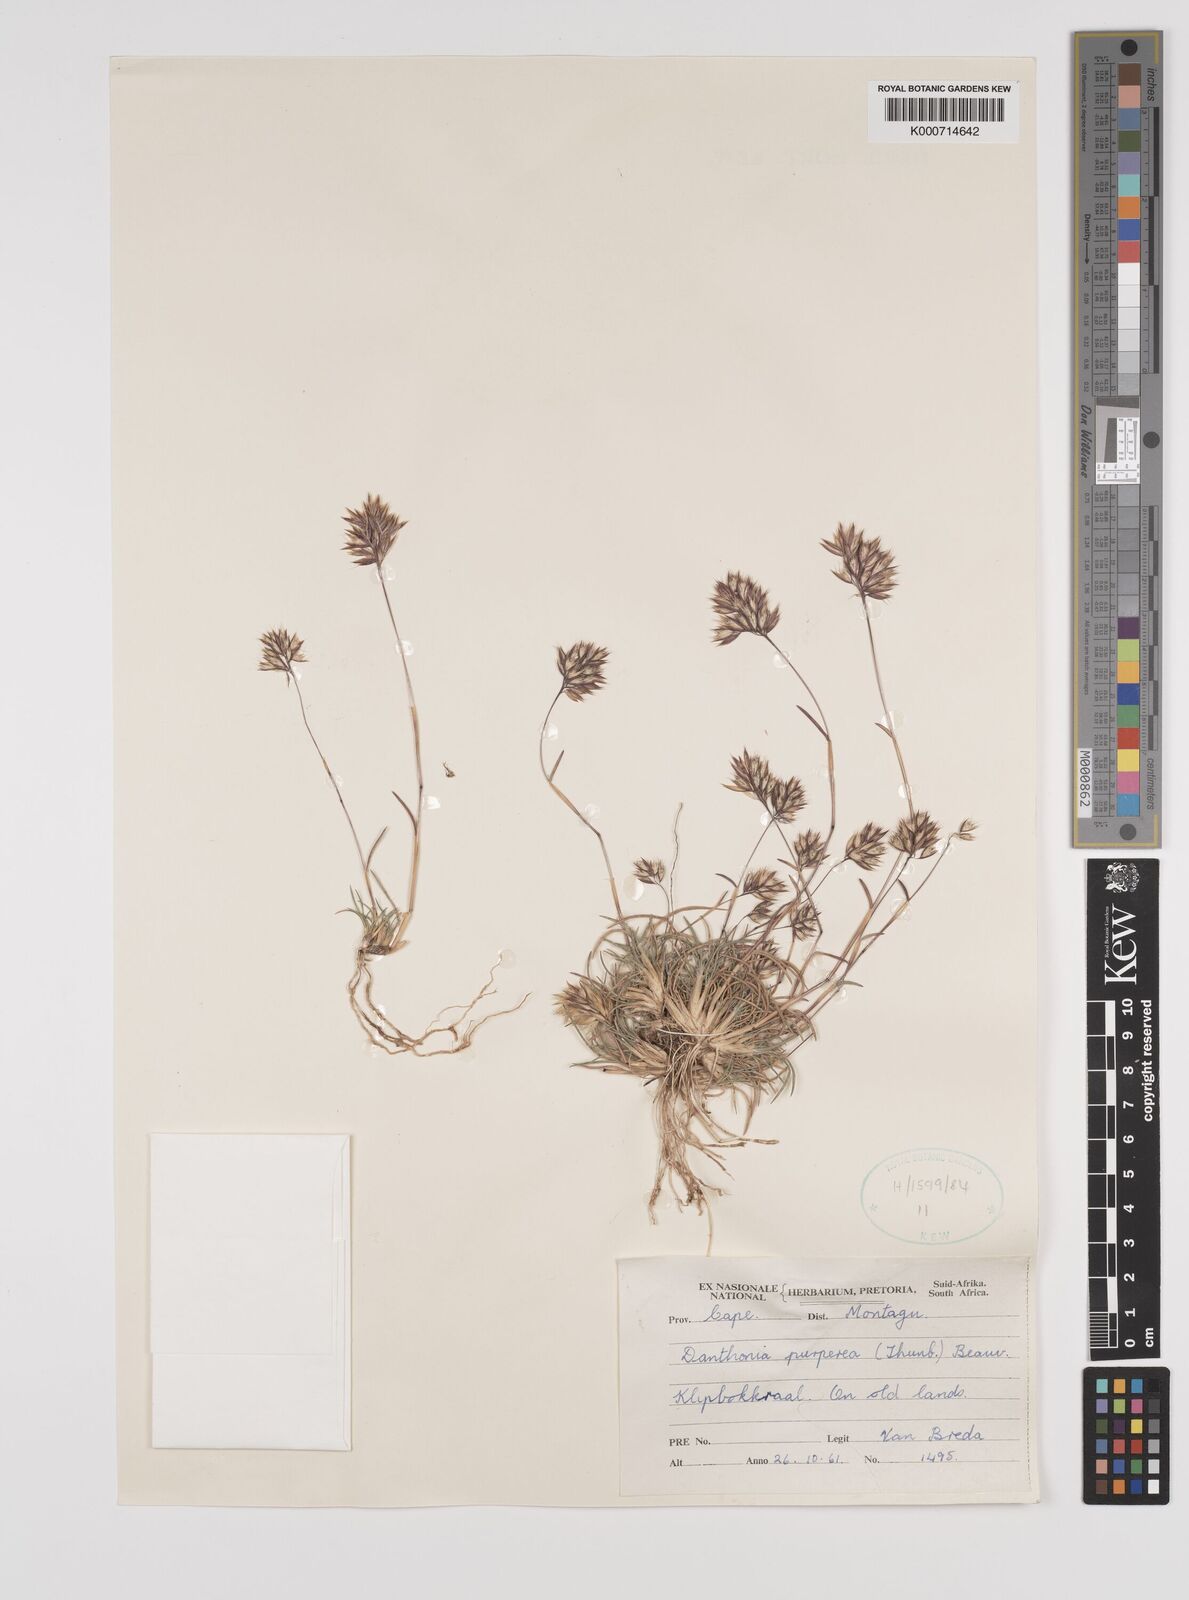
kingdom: Plantae
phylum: Tracheophyta
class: Liliopsida
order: Poales
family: Poaceae
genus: Rytidosperma
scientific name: Rytidosperma
